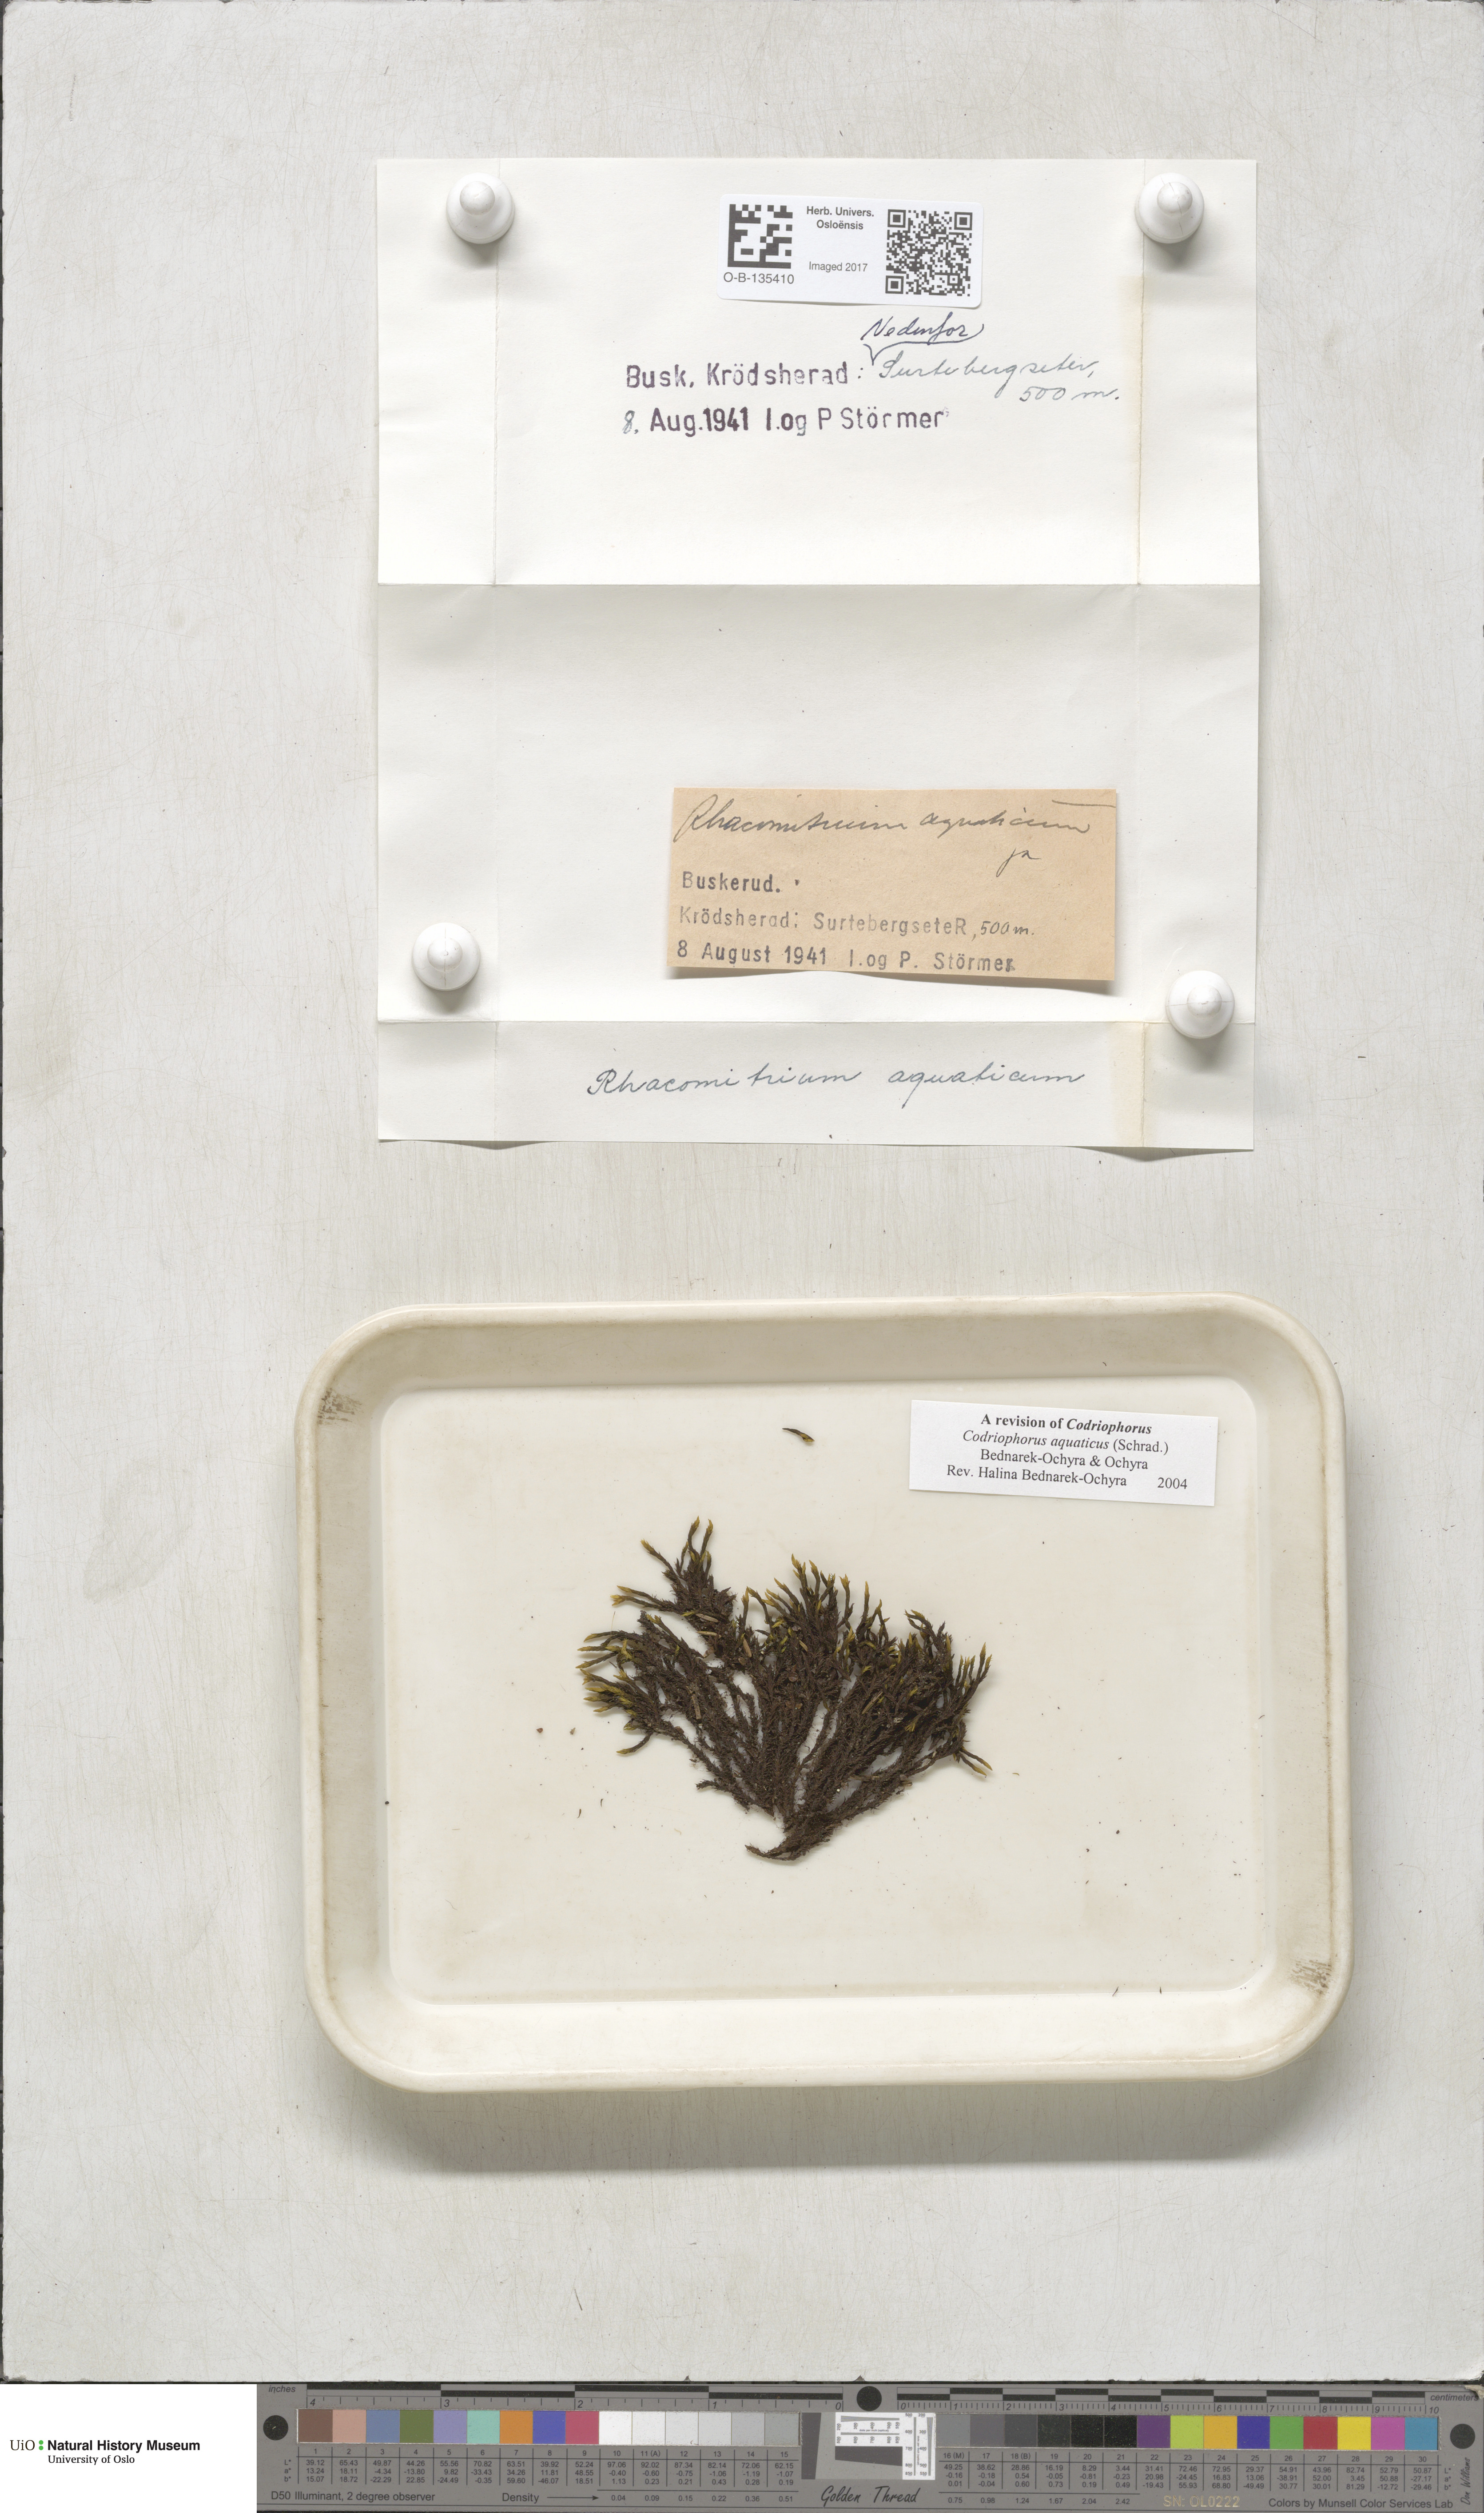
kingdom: Plantae
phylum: Bryophyta
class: Bryopsida
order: Grimmiales
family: Grimmiaceae
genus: Codriophorus
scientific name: Codriophorus aquaticus
